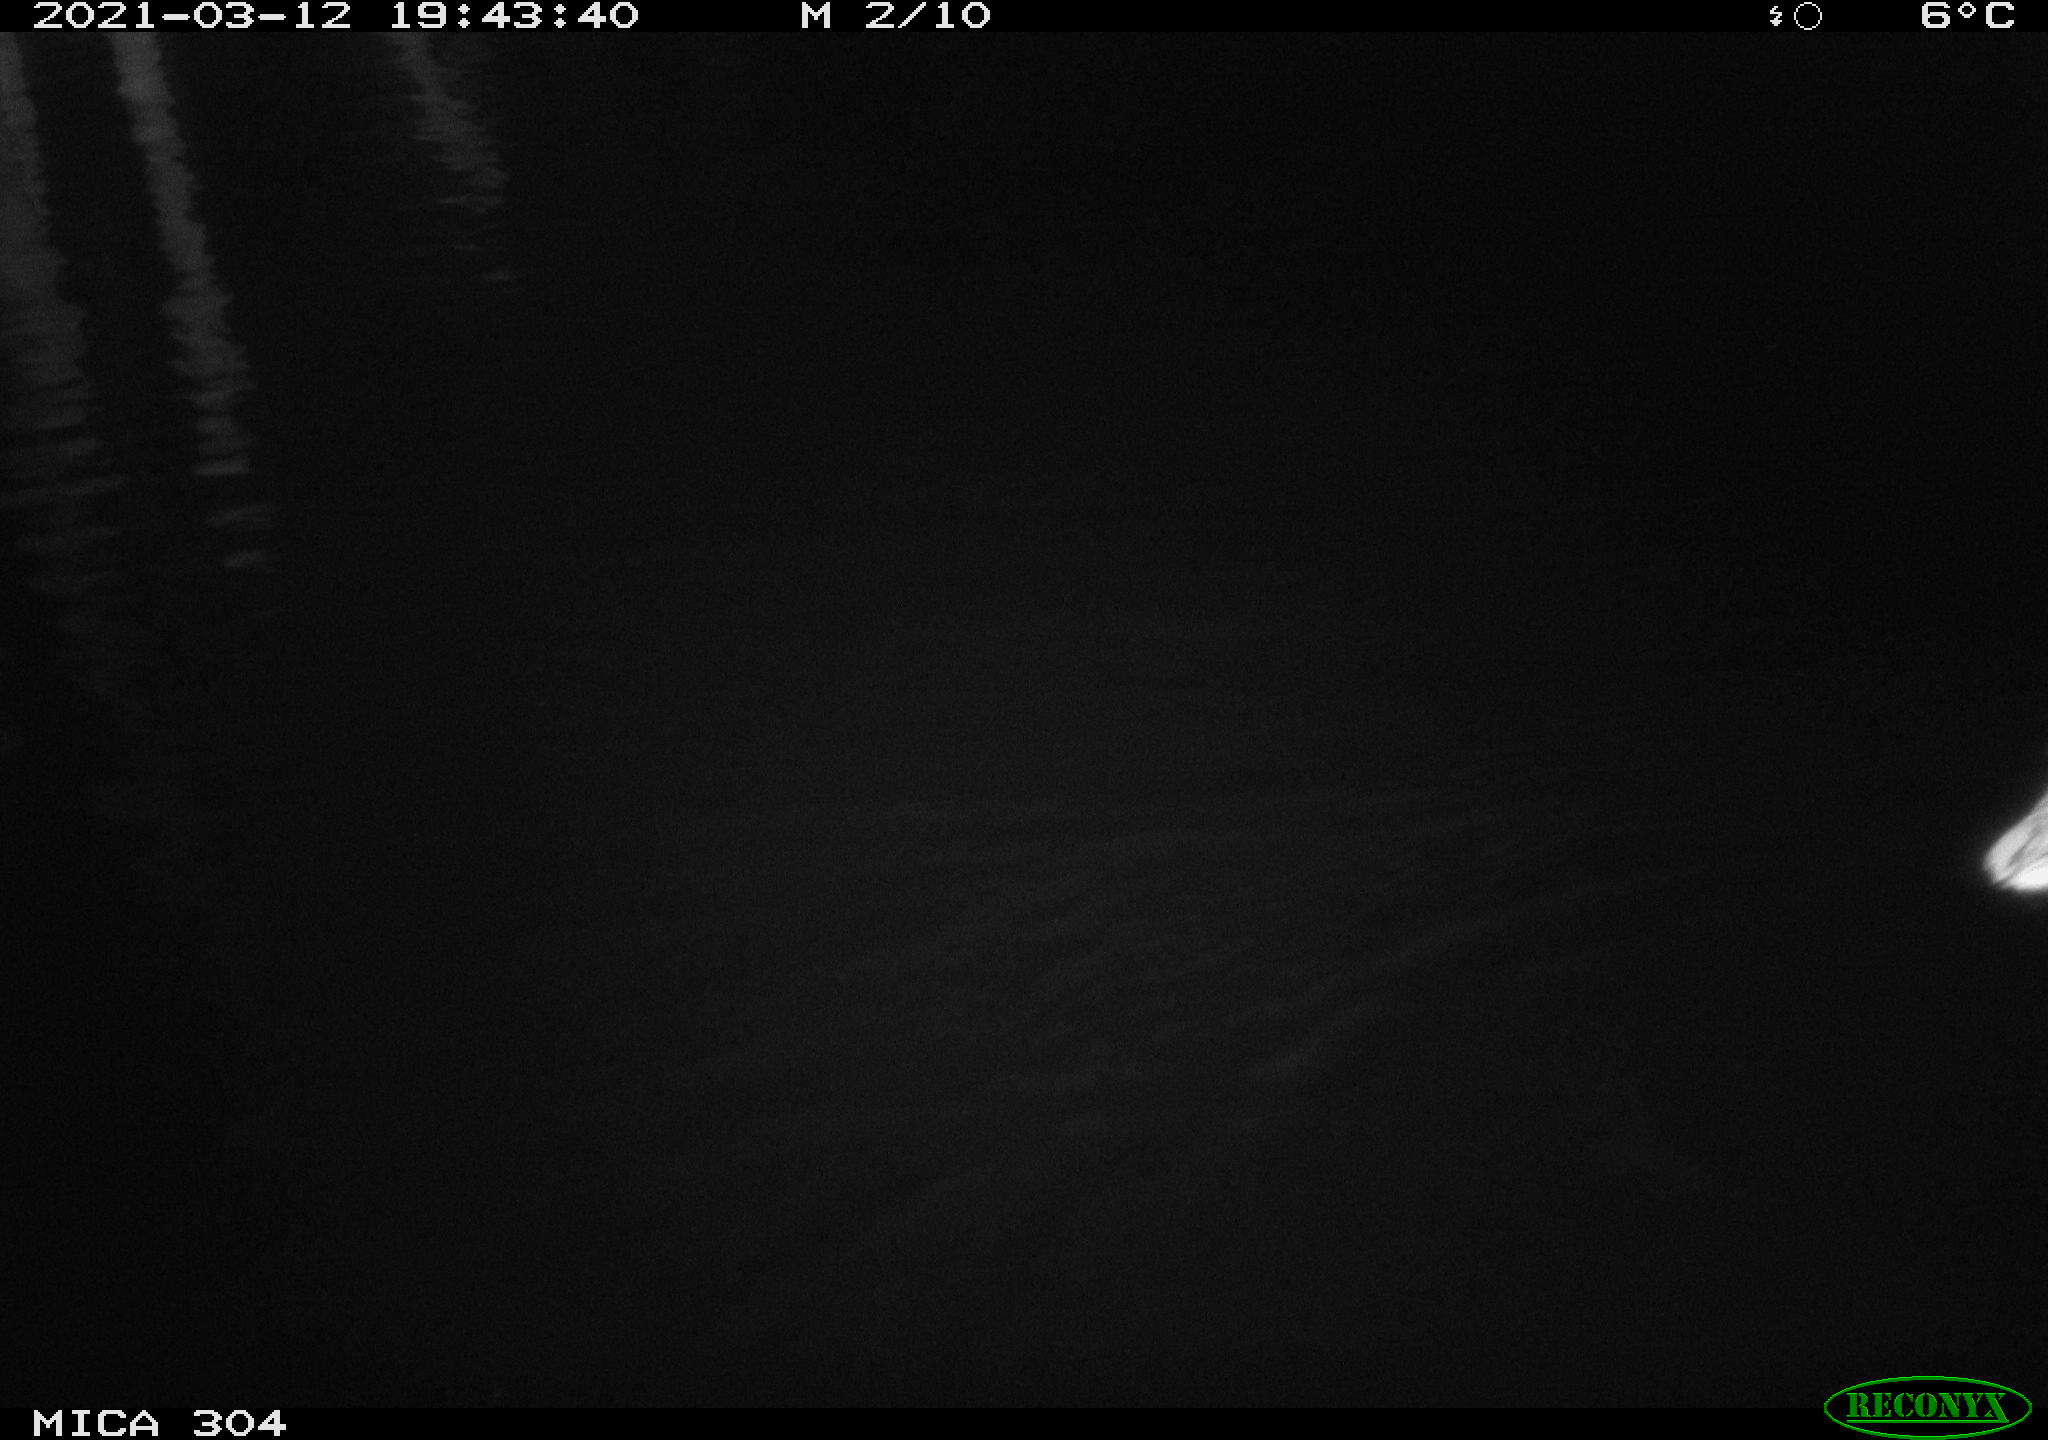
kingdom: Animalia
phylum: Chordata
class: Aves
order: Anseriformes
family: Anatidae
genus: Anas
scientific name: Anas platyrhynchos
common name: Mallard
